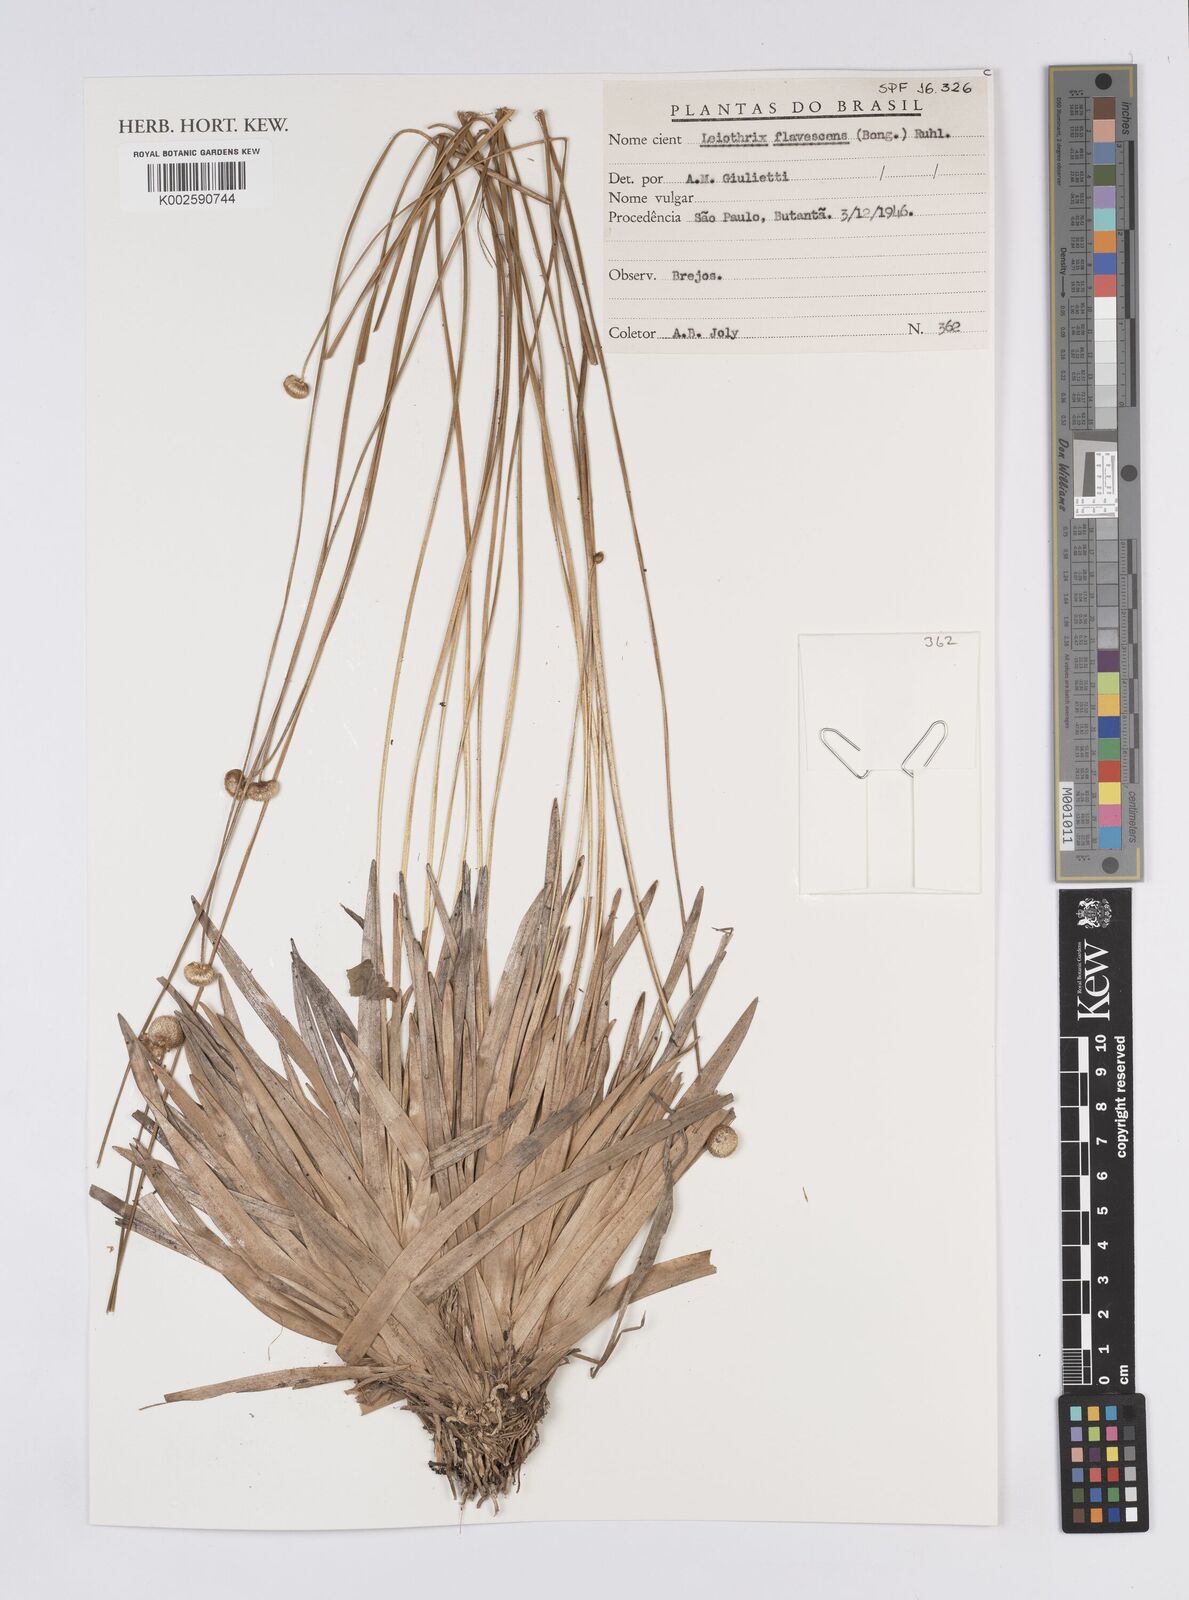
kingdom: Plantae
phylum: Tracheophyta
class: Liliopsida
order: Poales
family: Eriocaulaceae
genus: Leiothrix
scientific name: Leiothrix flavescens
